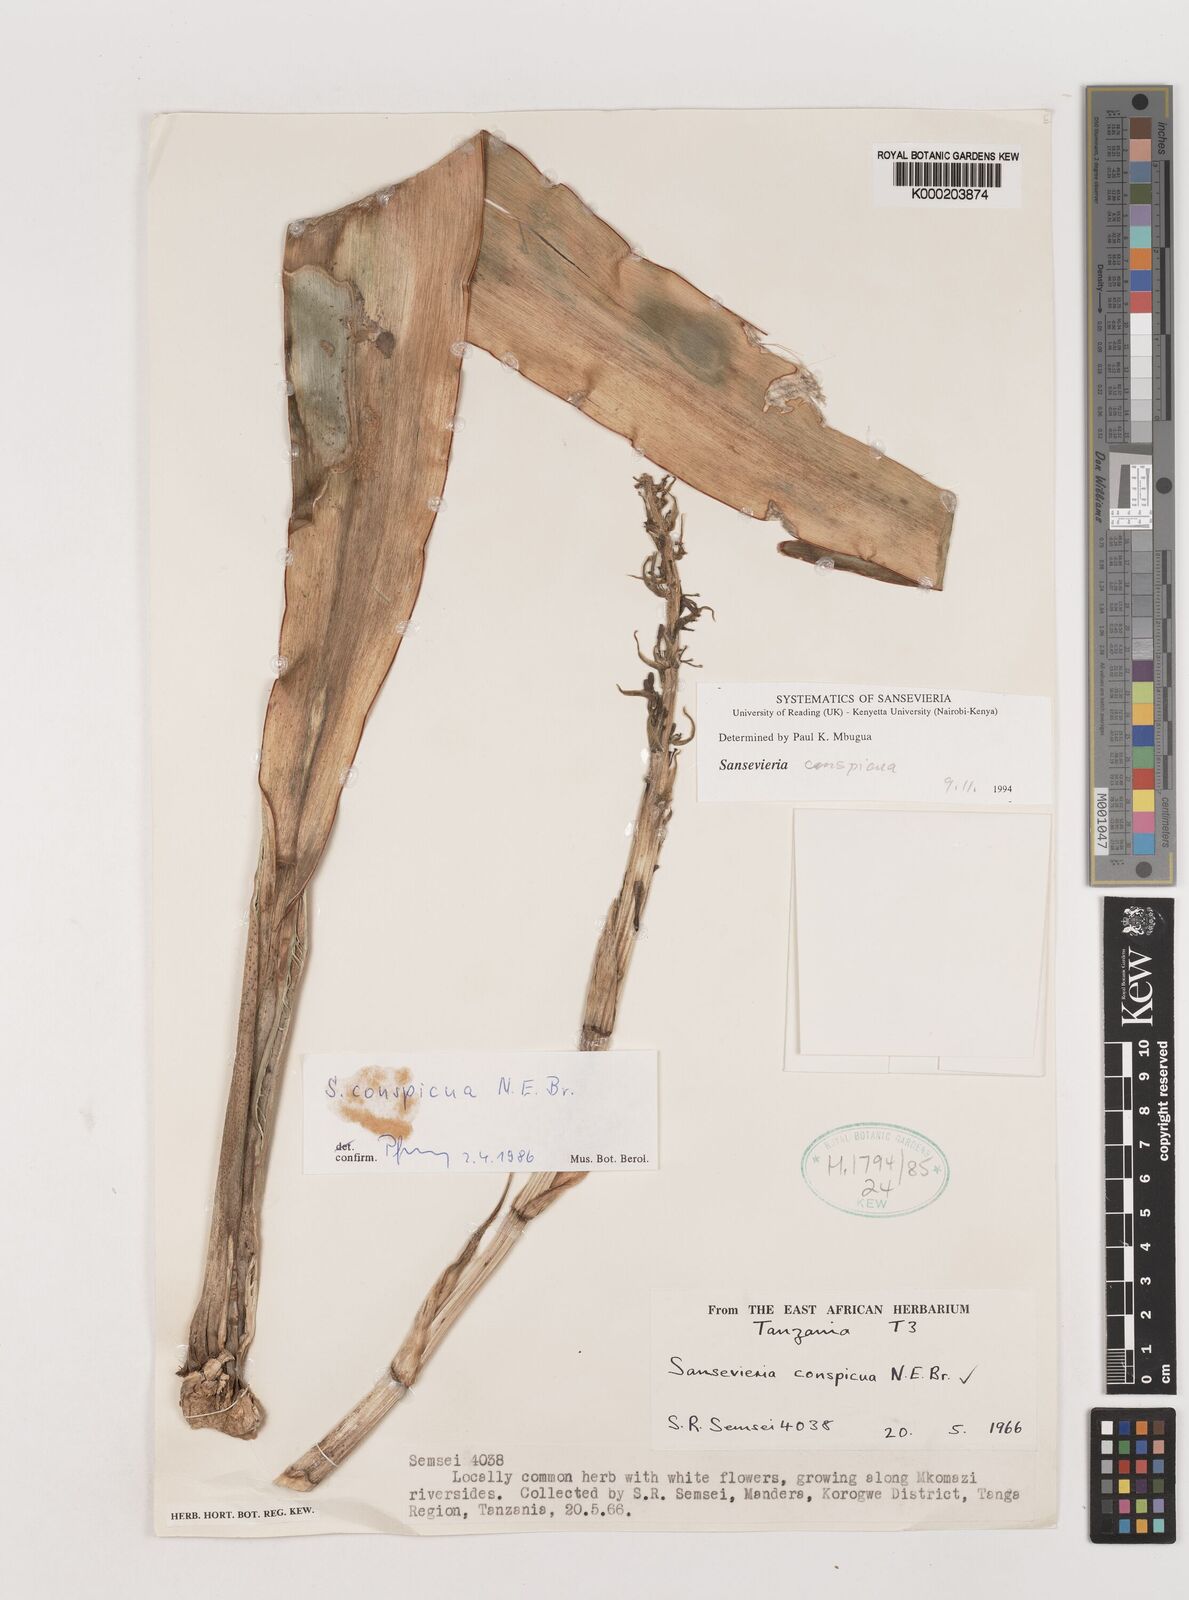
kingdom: Plantae
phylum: Tracheophyta
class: Liliopsida
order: Asparagales
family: Asparagaceae
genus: Dracaena
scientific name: Dracaena conspicua
